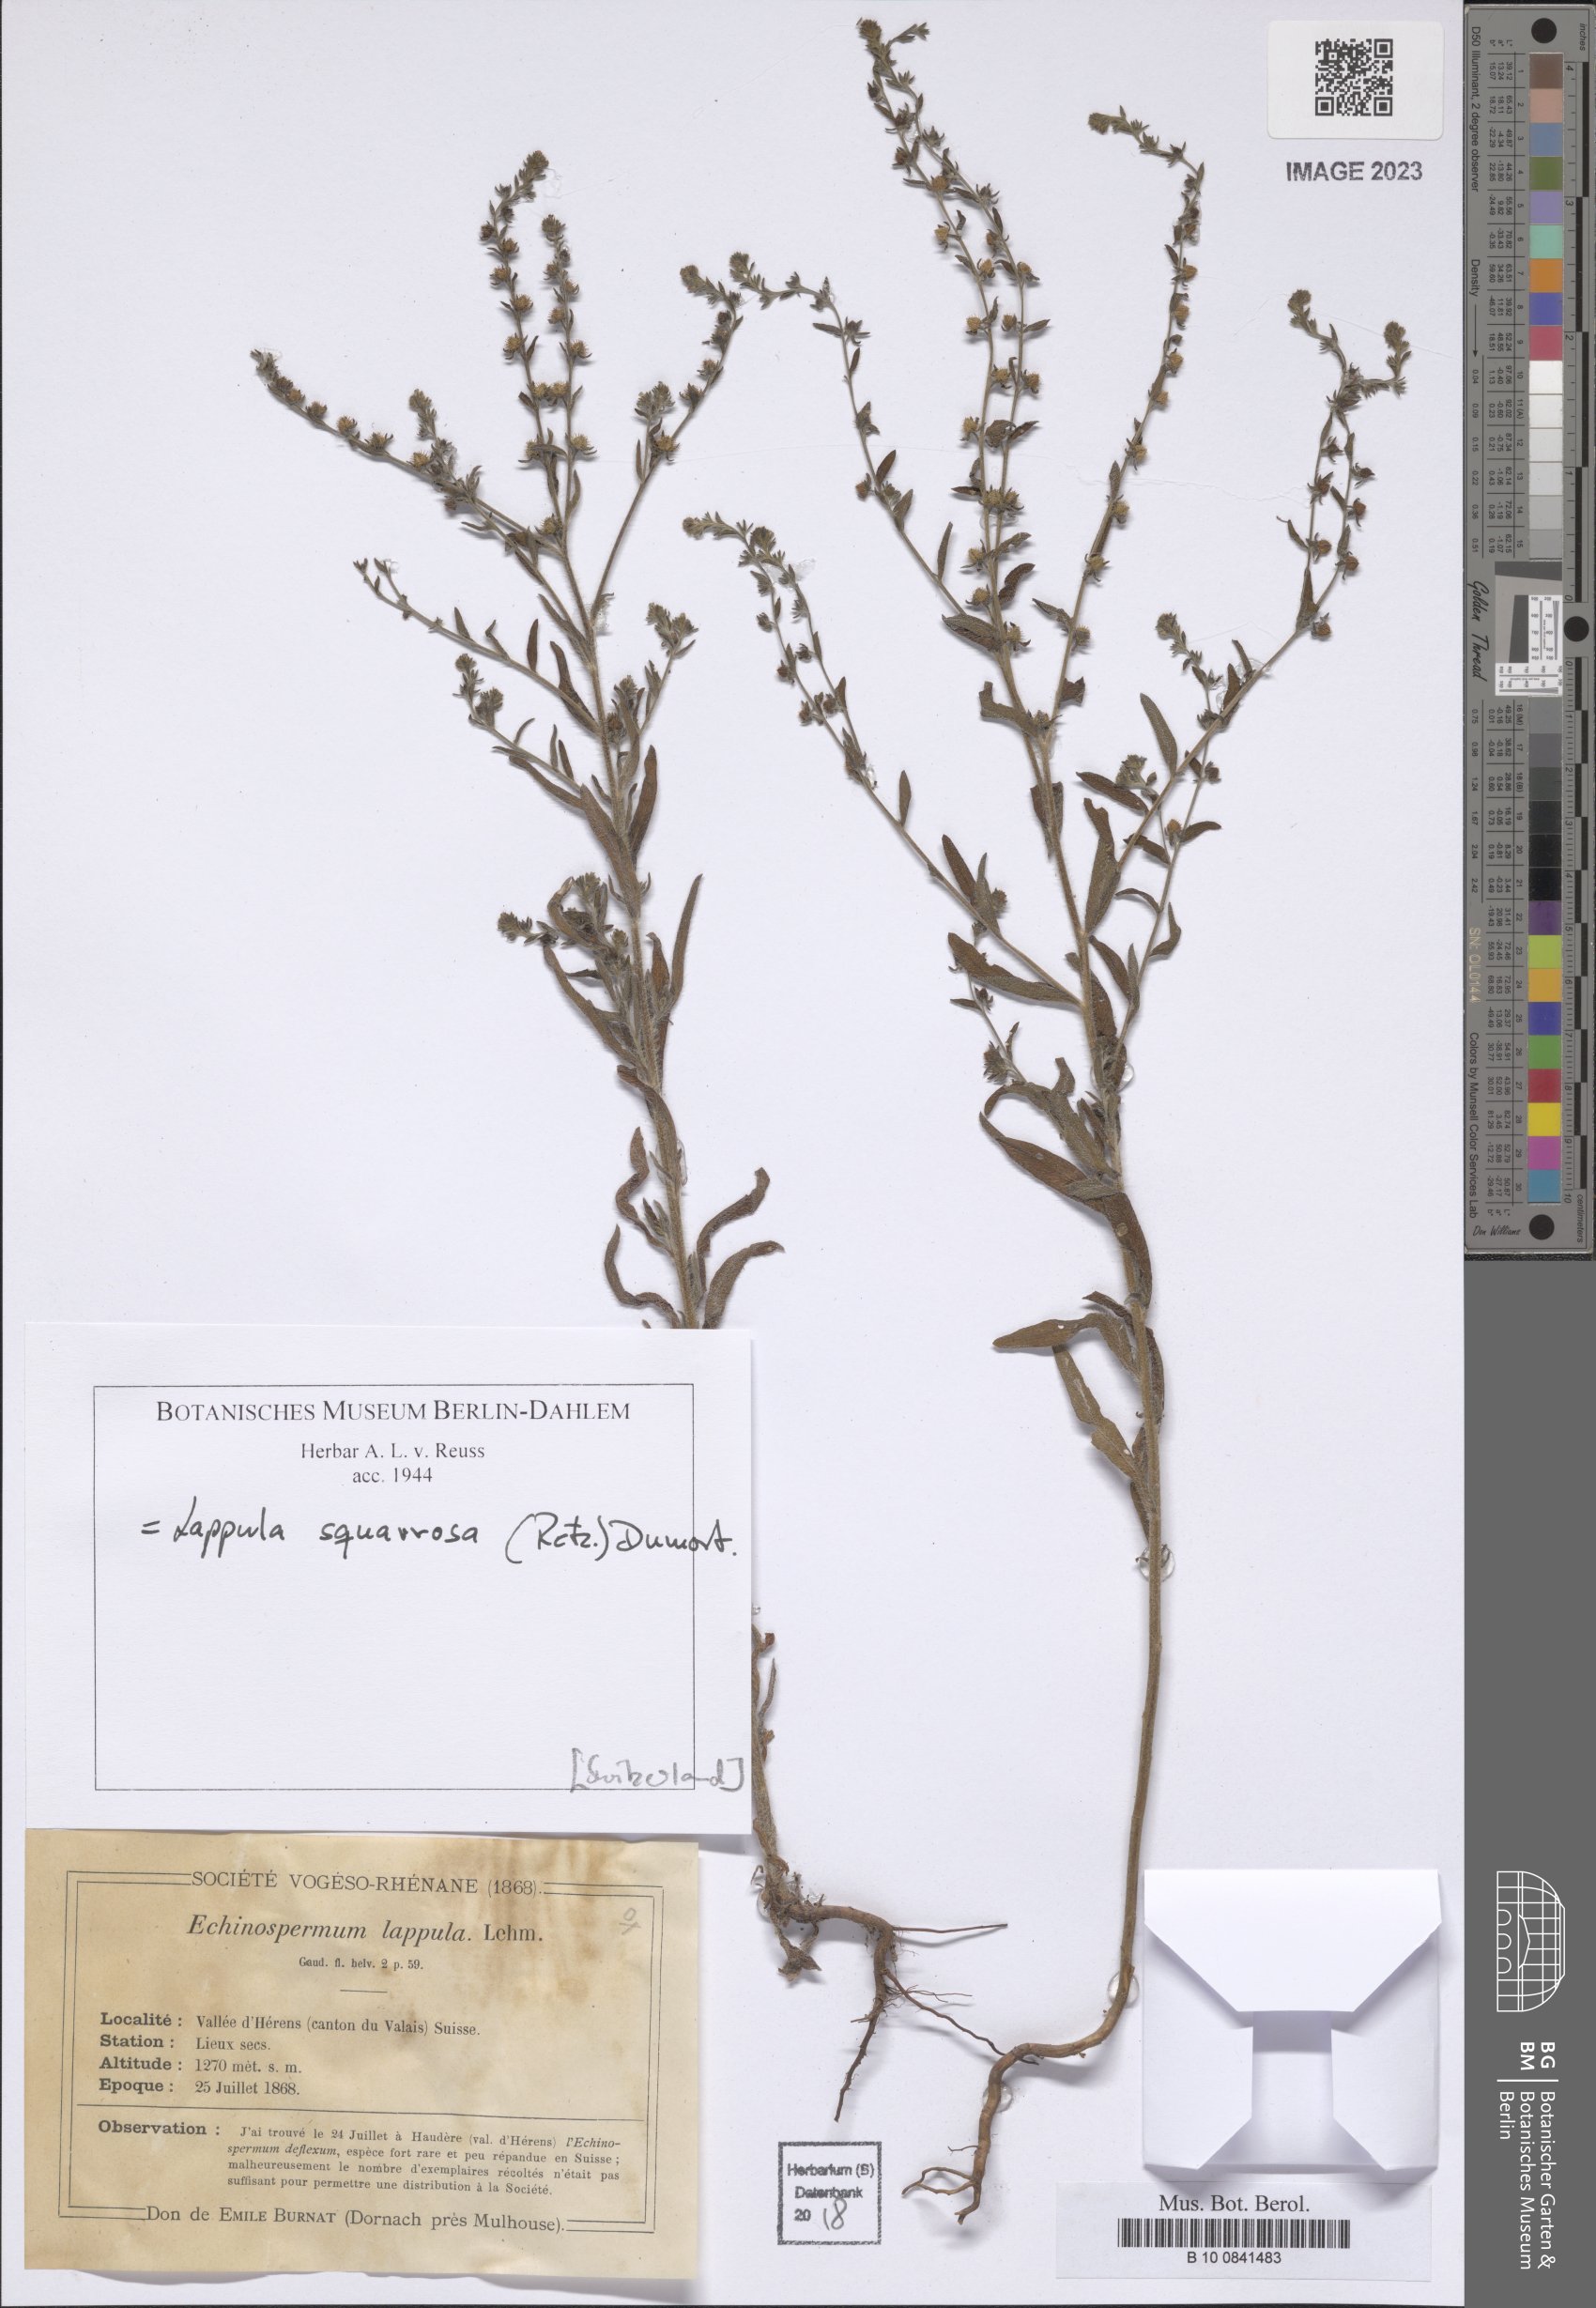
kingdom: Plantae
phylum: Tracheophyta
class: Magnoliopsida
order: Boraginales
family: Boraginaceae
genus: Lappula
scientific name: Lappula squarrosa
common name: European stickseed
